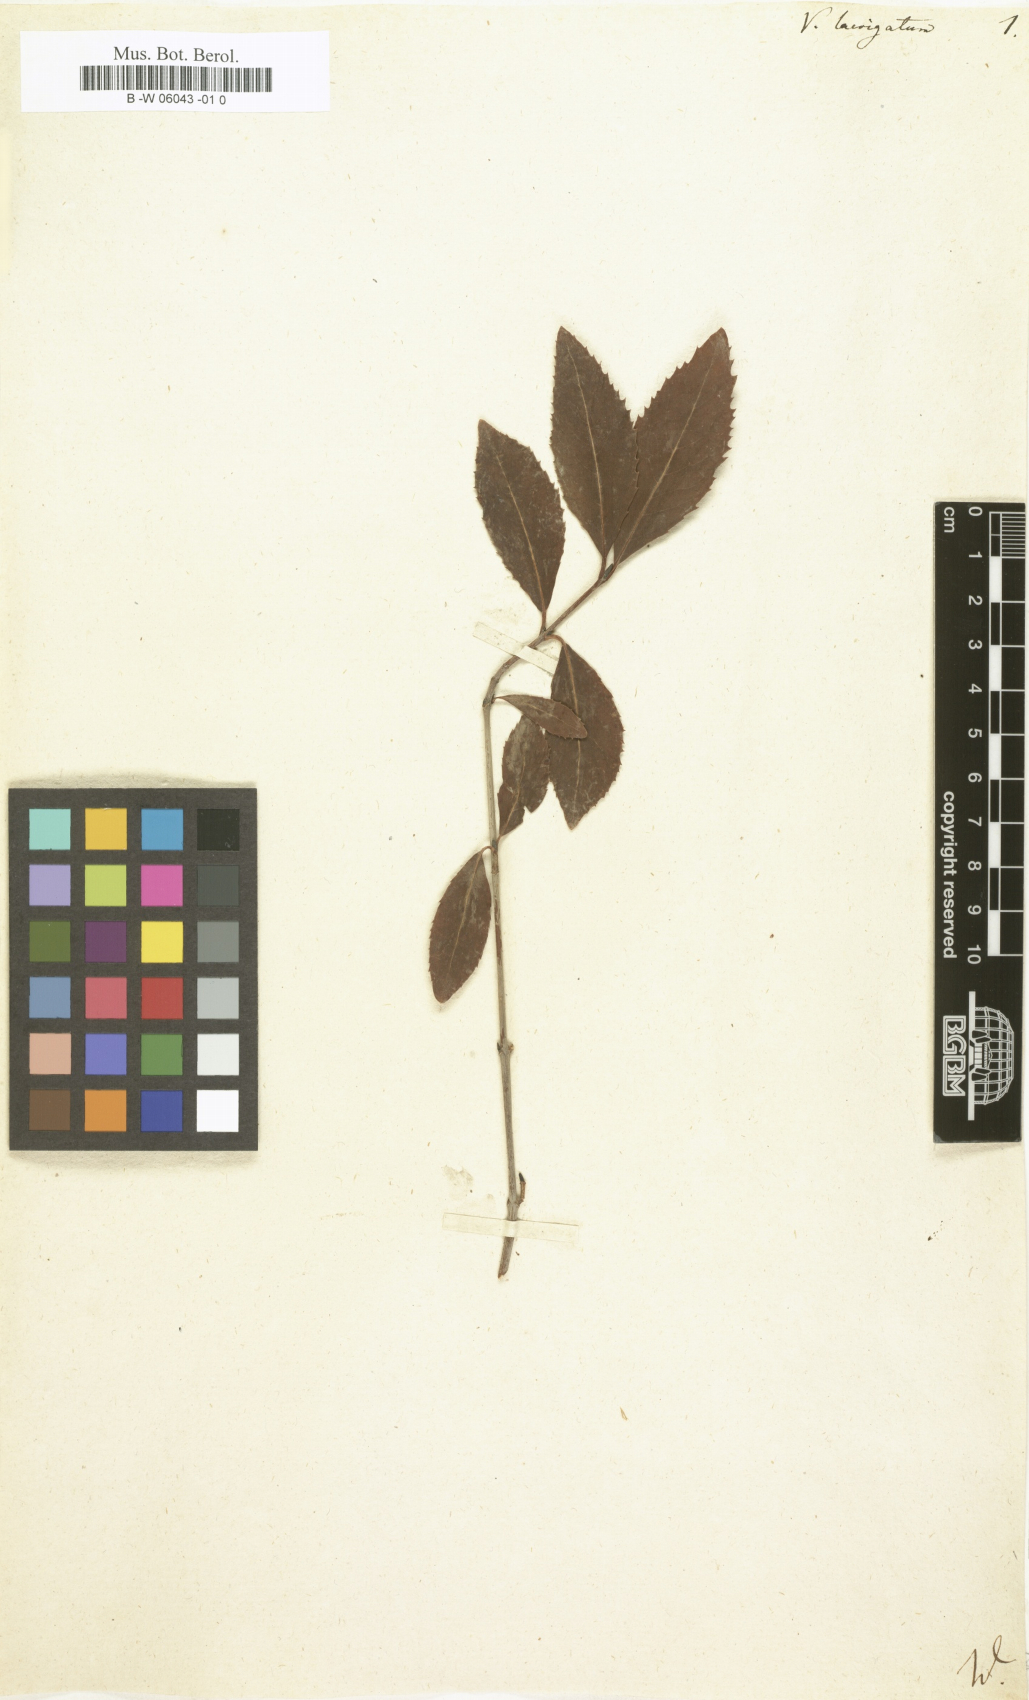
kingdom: Plantae
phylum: Tracheophyta
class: Magnoliopsida
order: Dipsacales
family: Viburnaceae
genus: Viburnum
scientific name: Viburnum
